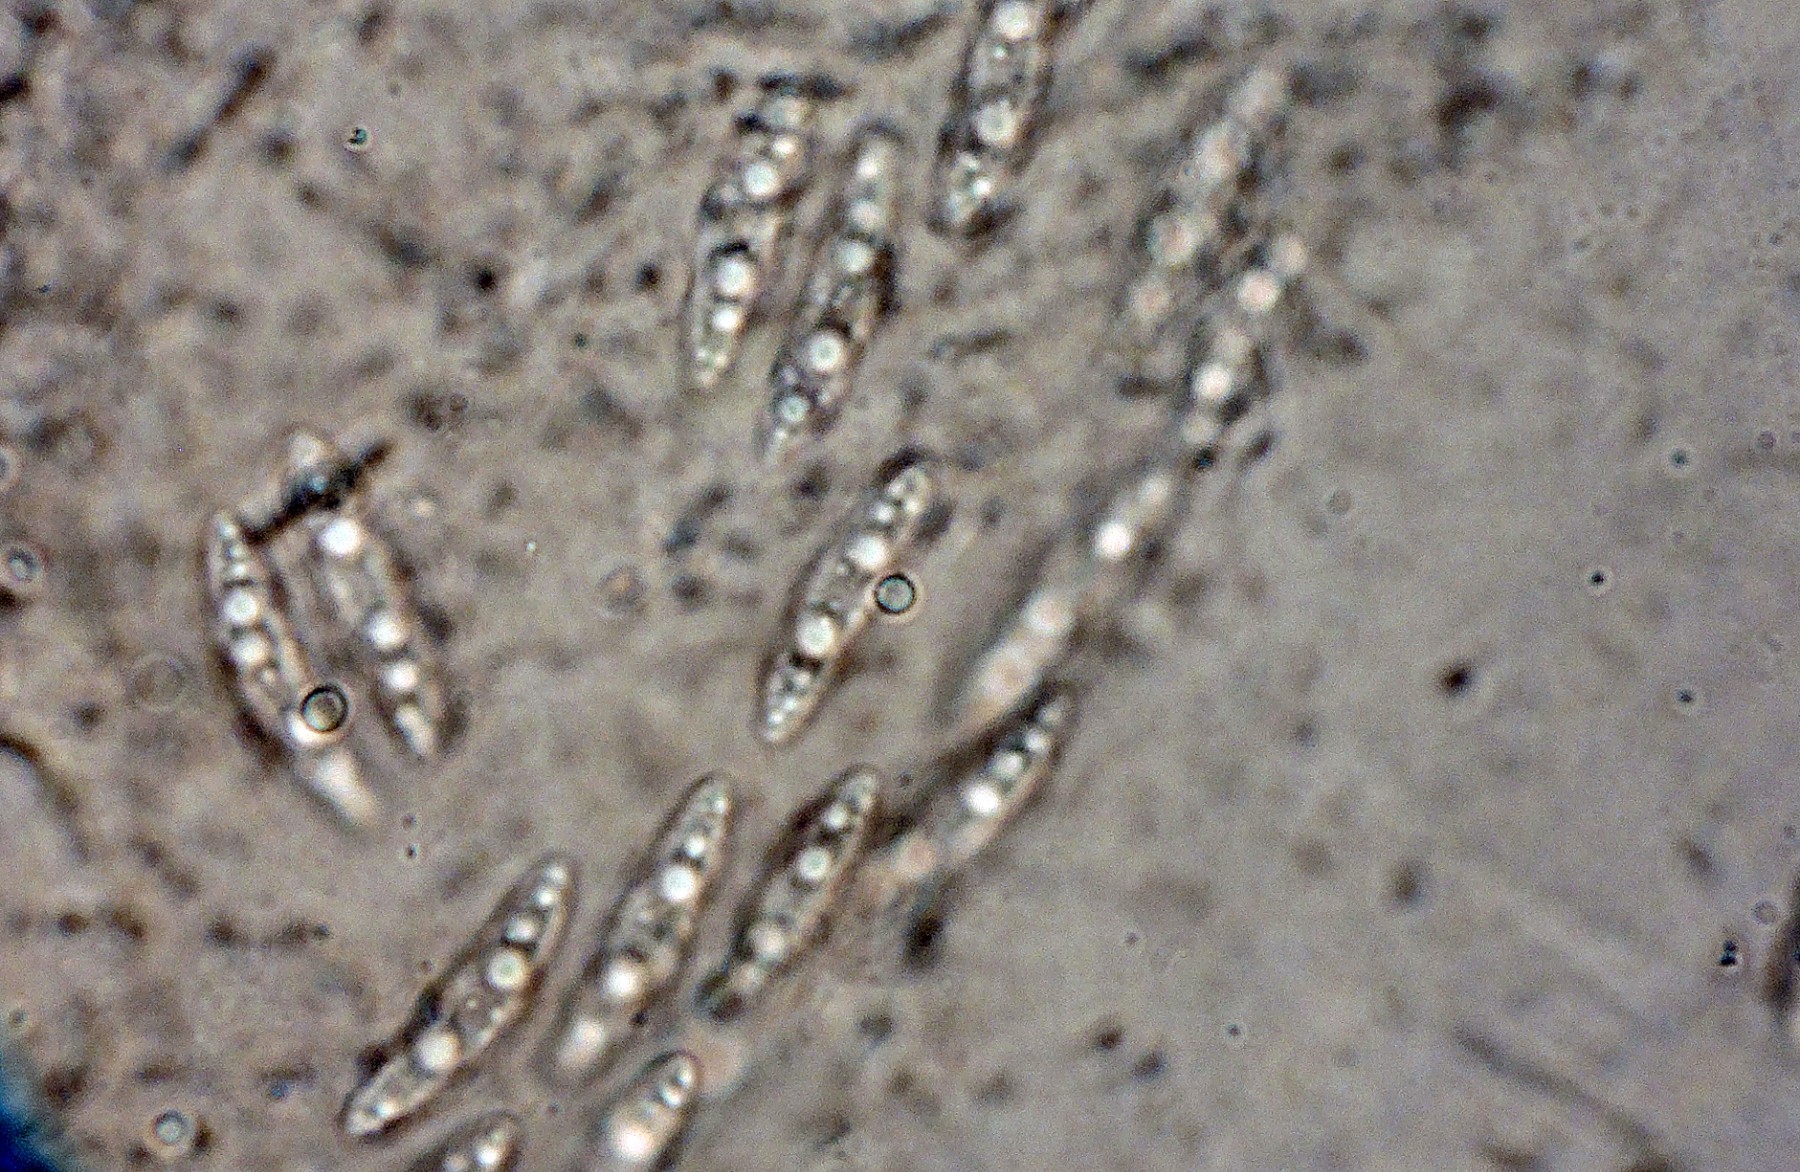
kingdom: Fungi
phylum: Ascomycota
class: Leotiomycetes
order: Helotiales
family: Gelatinodiscaceae
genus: Ombrophila
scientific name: Ombrophila
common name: bævreskive
